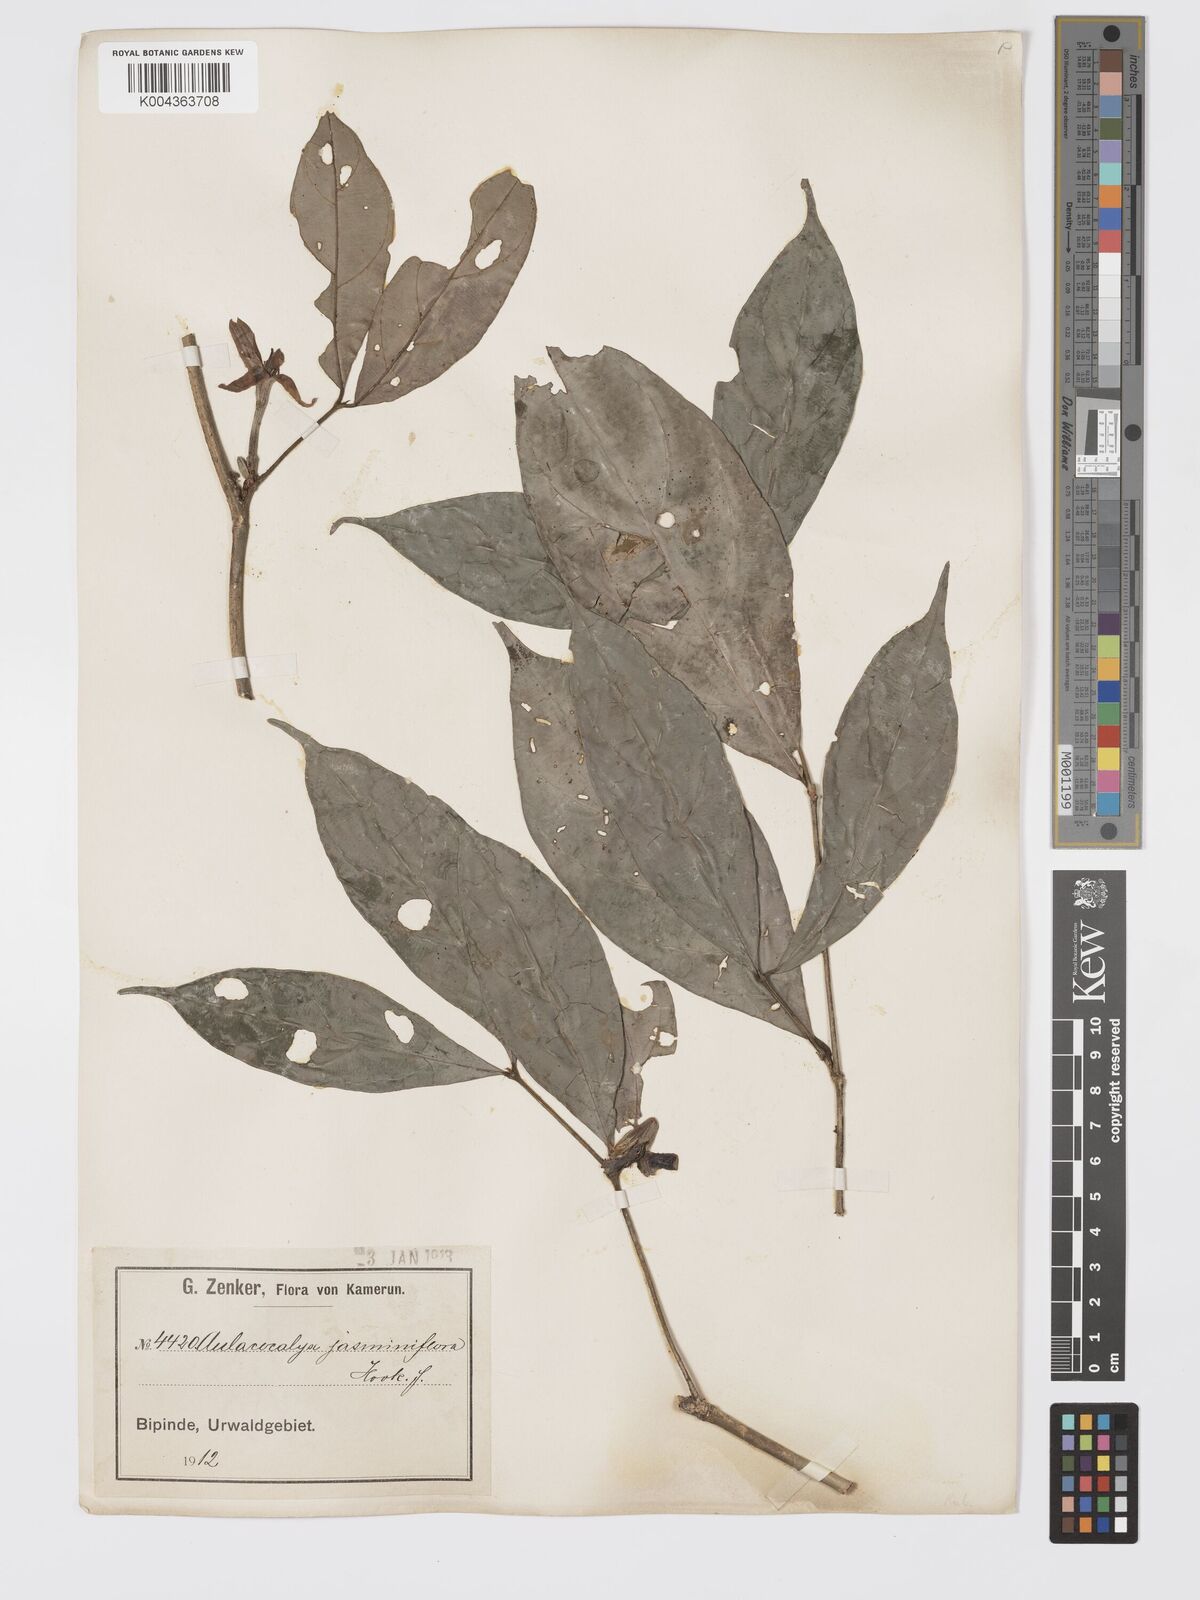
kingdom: Plantae
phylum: Tracheophyta
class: Magnoliopsida
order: Gentianales
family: Rubiaceae
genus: Aulacocalyx
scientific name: Aulacocalyx jasminiflora
